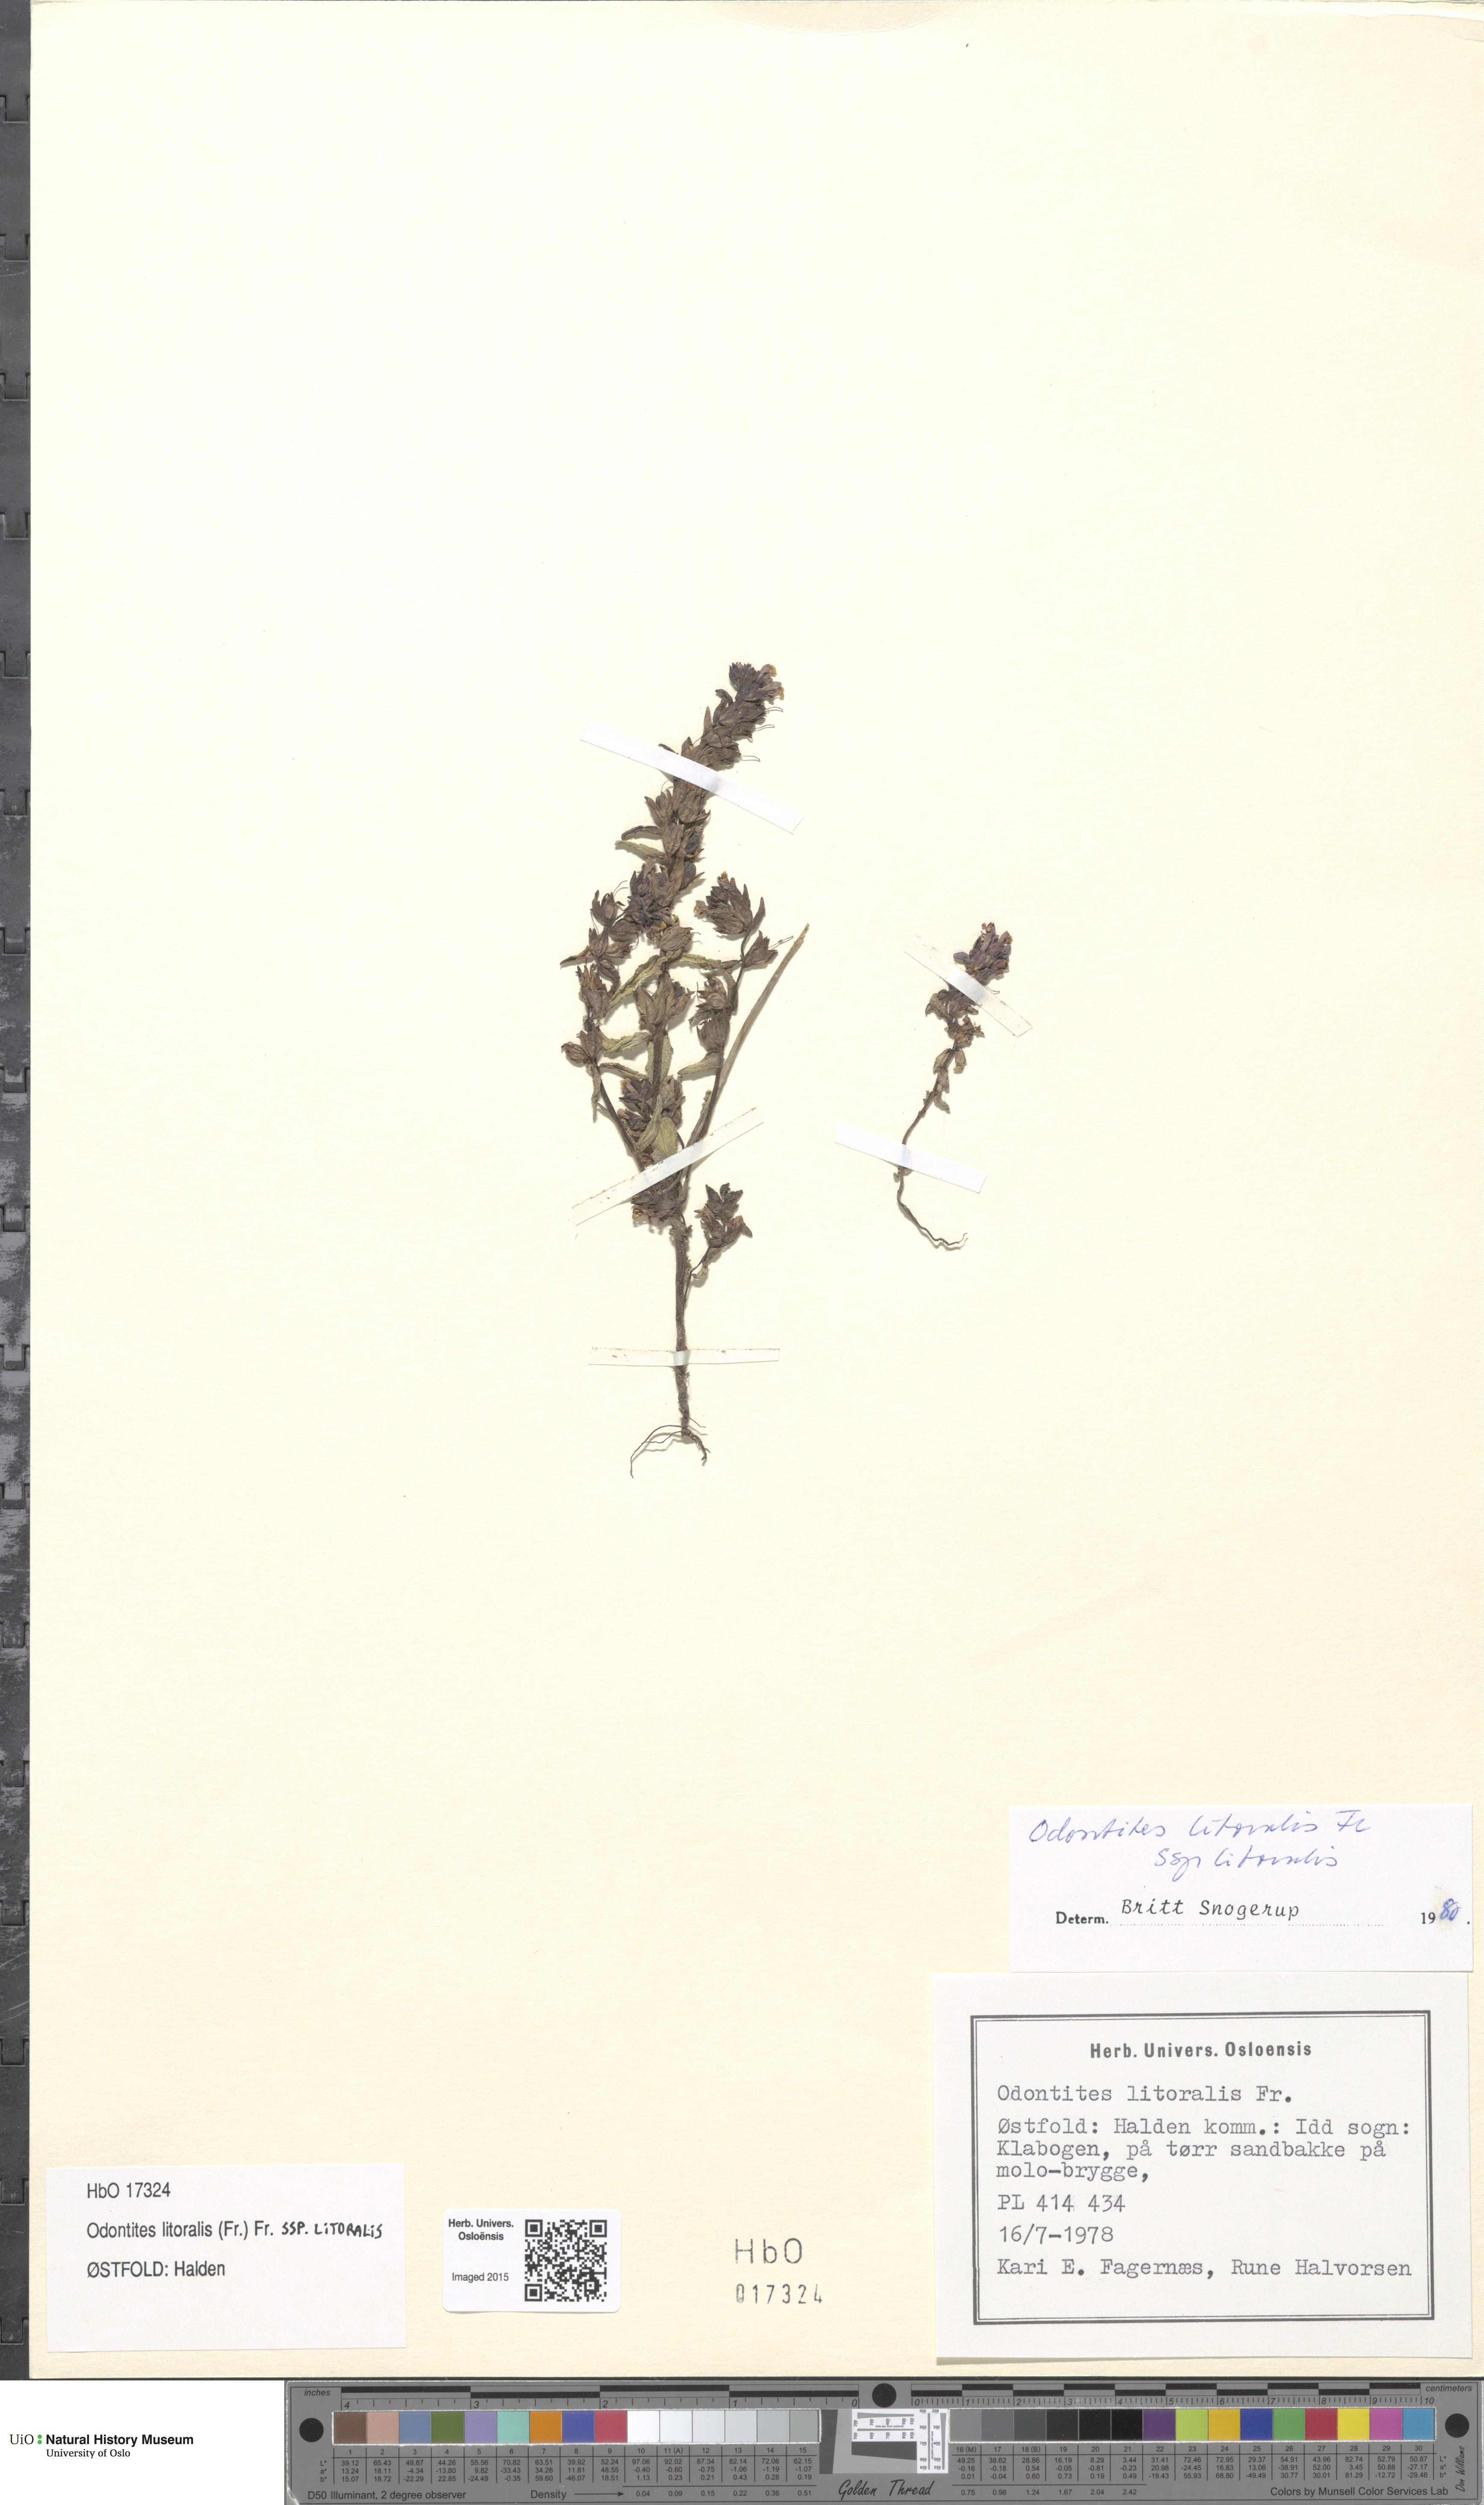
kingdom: Plantae
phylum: Tracheophyta
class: Magnoliopsida
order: Lamiales
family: Orobanchaceae
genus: Odontites
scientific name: Odontites litoralis
